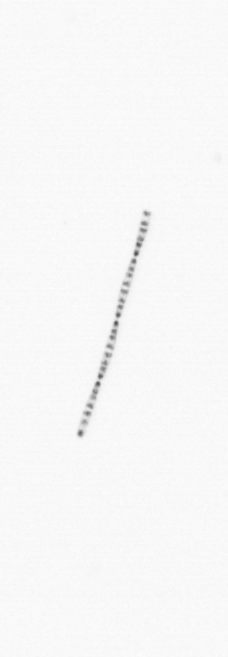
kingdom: Chromista
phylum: Ochrophyta
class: Bacillariophyceae
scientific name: Bacillariophyceae
